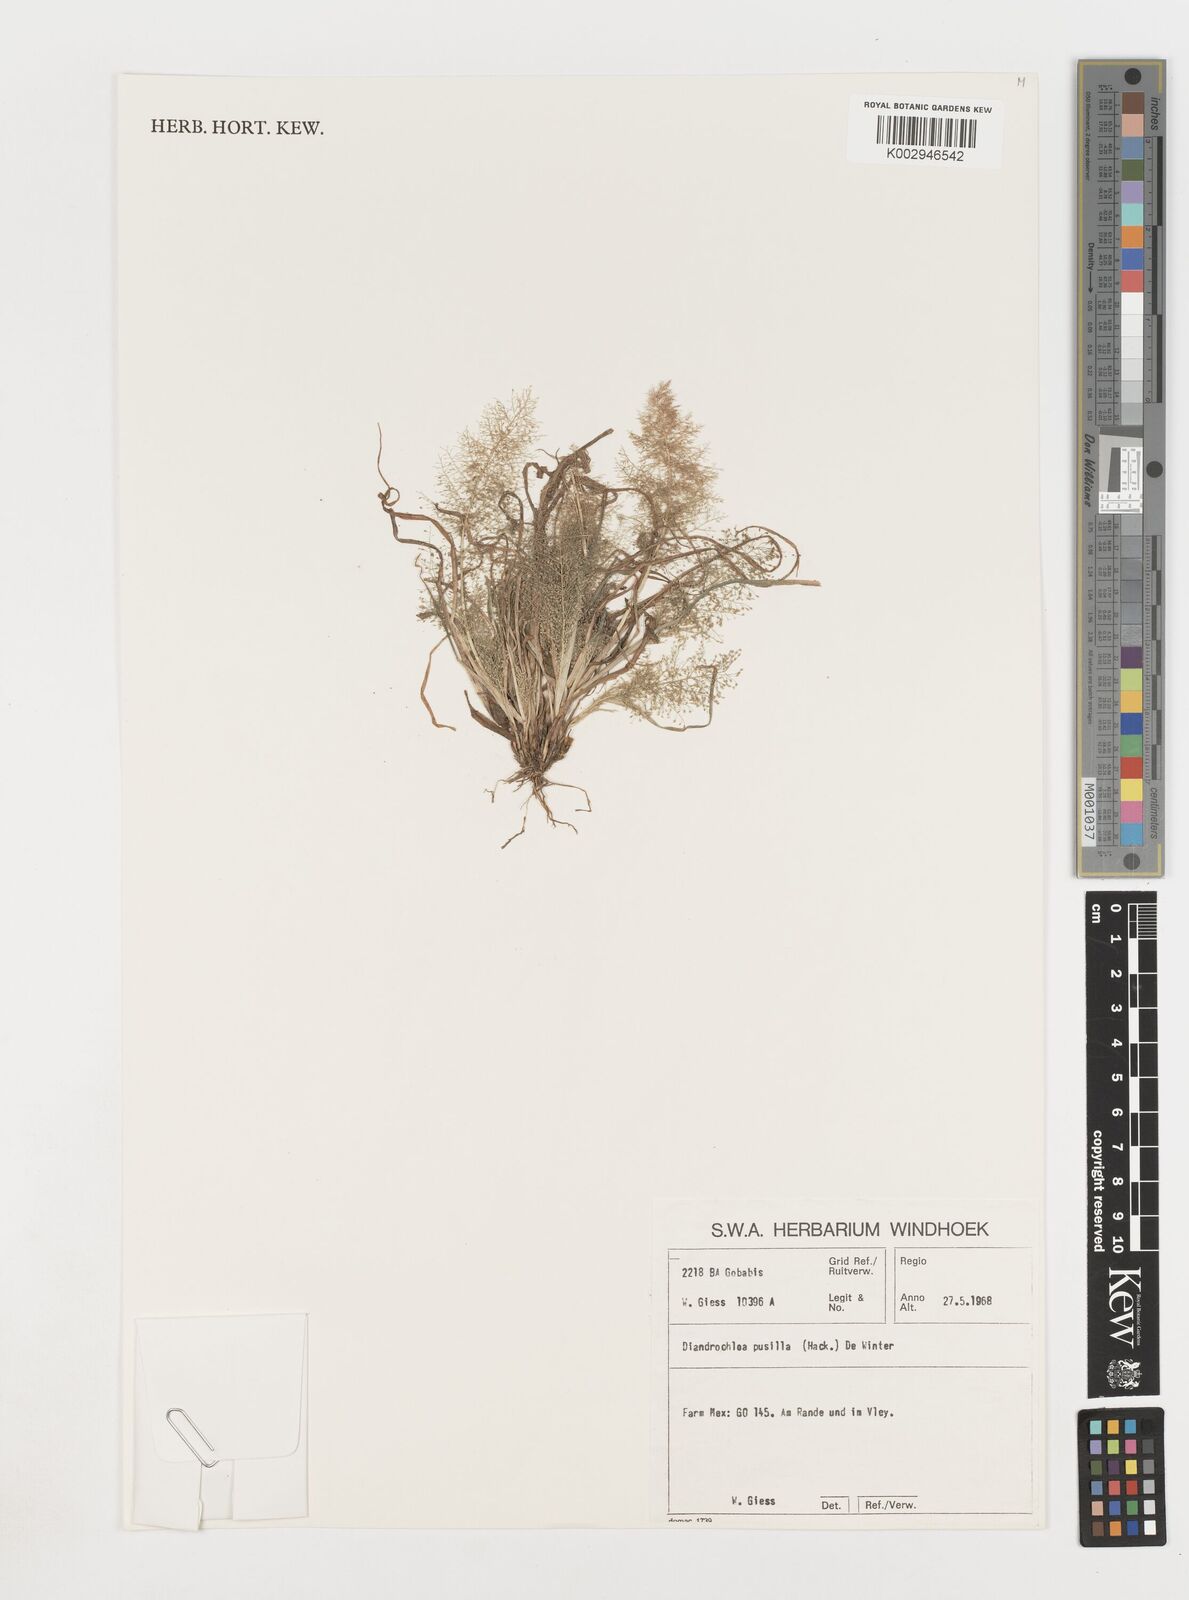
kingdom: Plantae
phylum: Tracheophyta
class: Liliopsida
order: Poales
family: Poaceae
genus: Eragrostis
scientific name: Eragrostis pusilla
